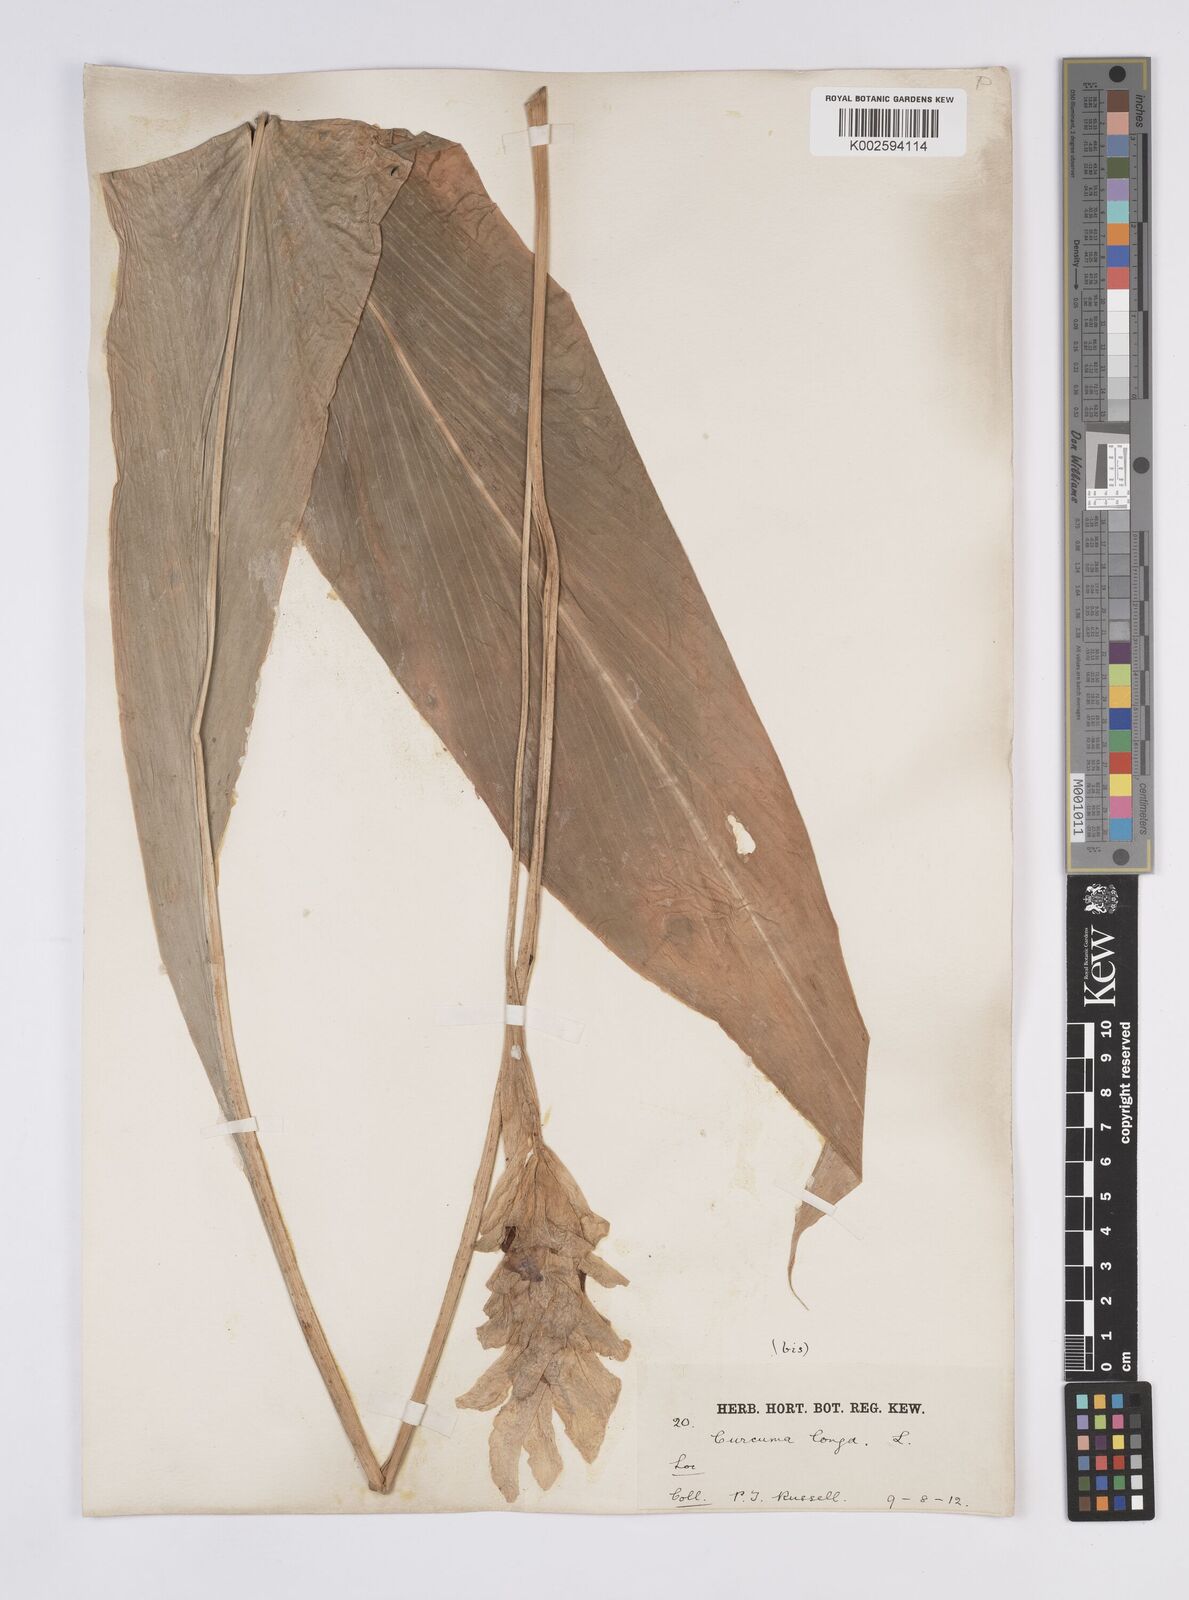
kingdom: Plantae
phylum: Tracheophyta
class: Liliopsida
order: Zingiberales
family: Zingiberaceae
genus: Curcuma
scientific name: Curcuma longa
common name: Turmeric
